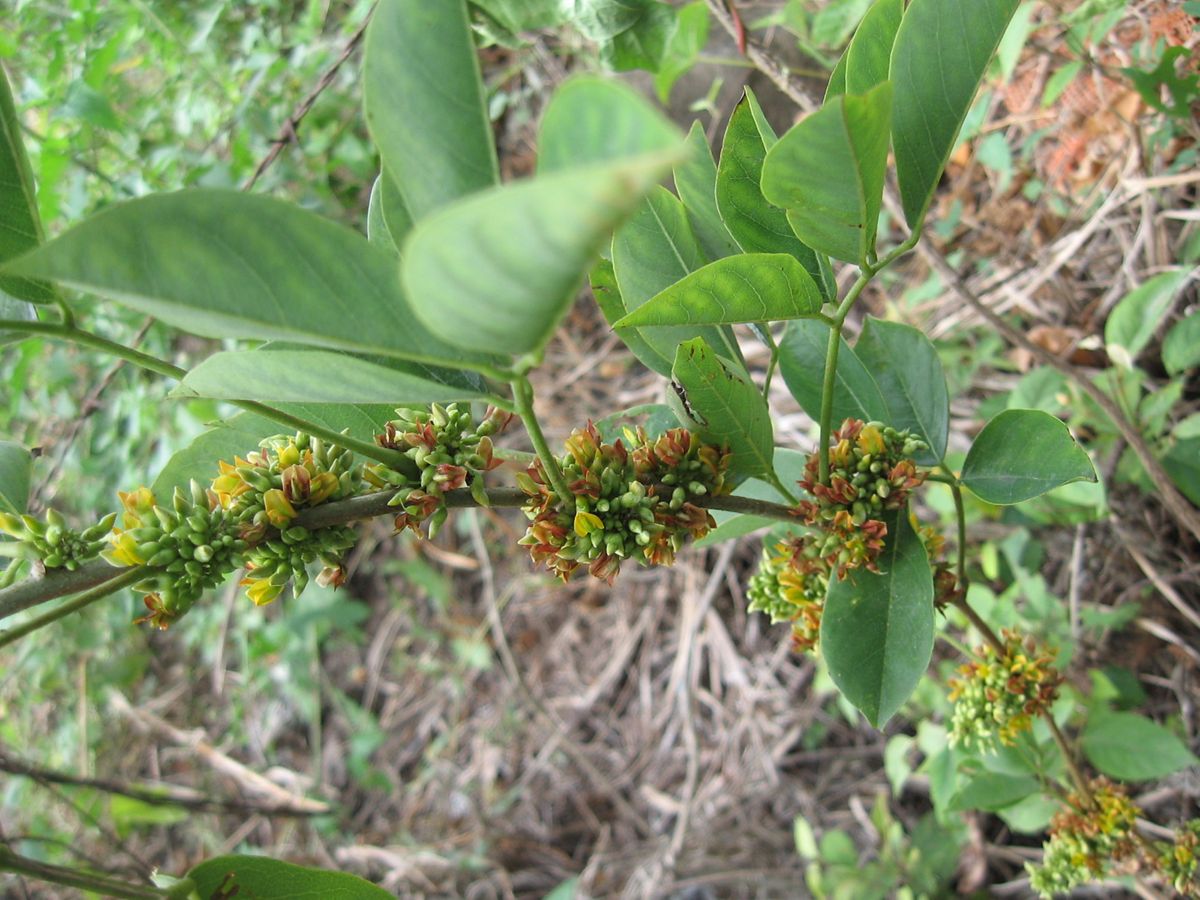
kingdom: Plantae
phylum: Tracheophyta
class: Magnoliopsida
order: Fabales
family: Fabaceae
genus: Nissolia
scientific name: Nissolia fruticosa
